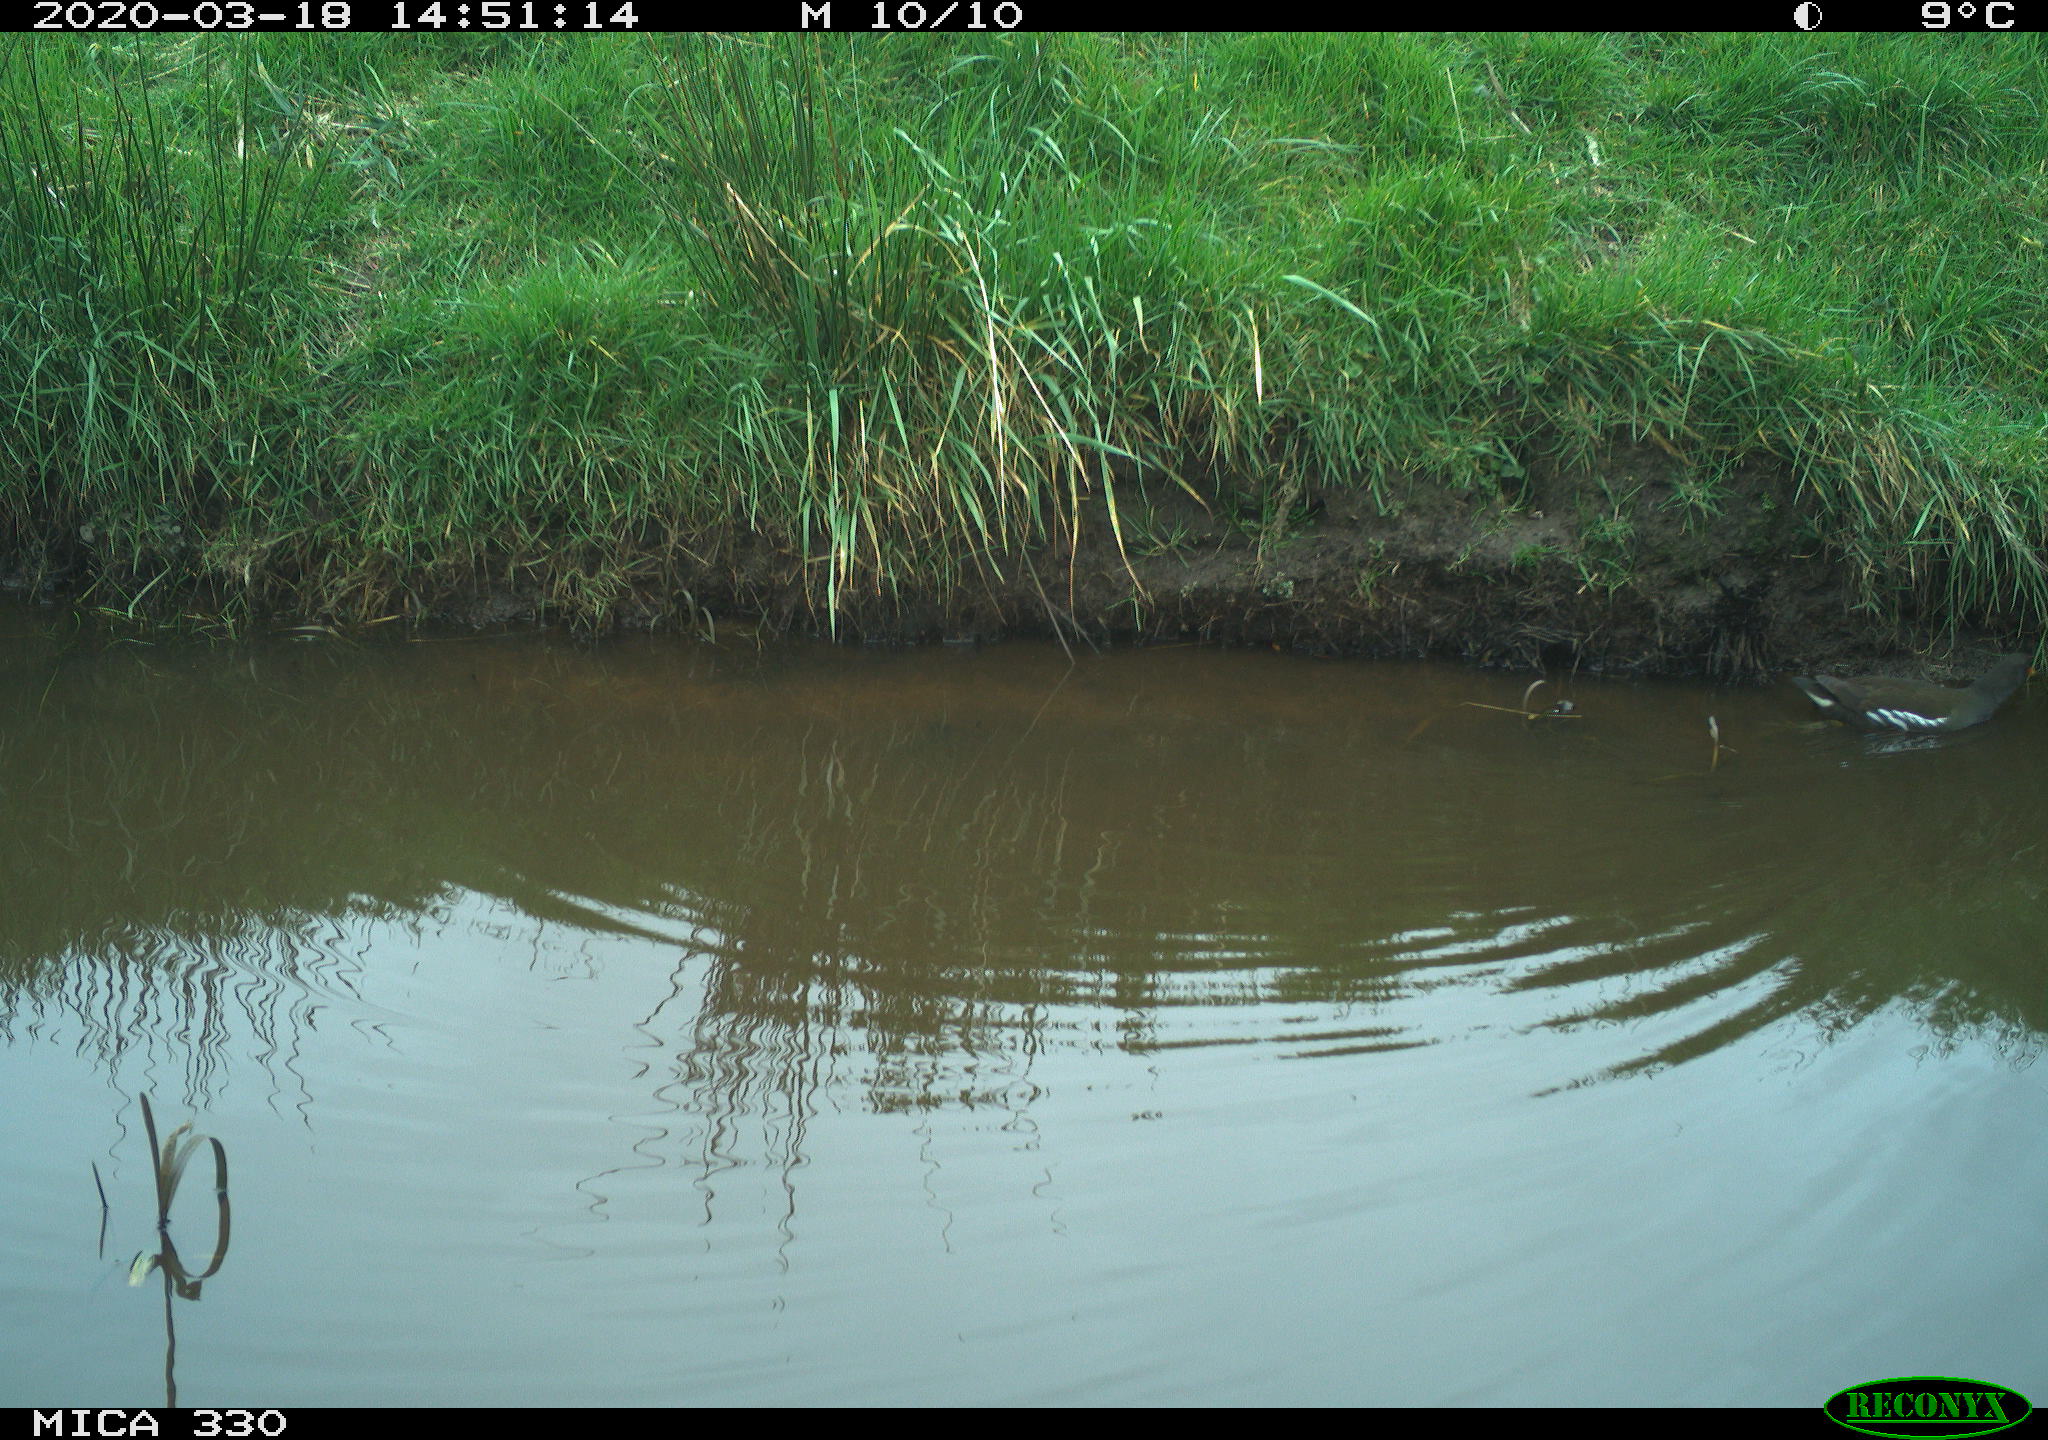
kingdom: Animalia
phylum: Chordata
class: Aves
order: Gruiformes
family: Rallidae
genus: Gallinula
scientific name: Gallinula chloropus
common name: Common moorhen
